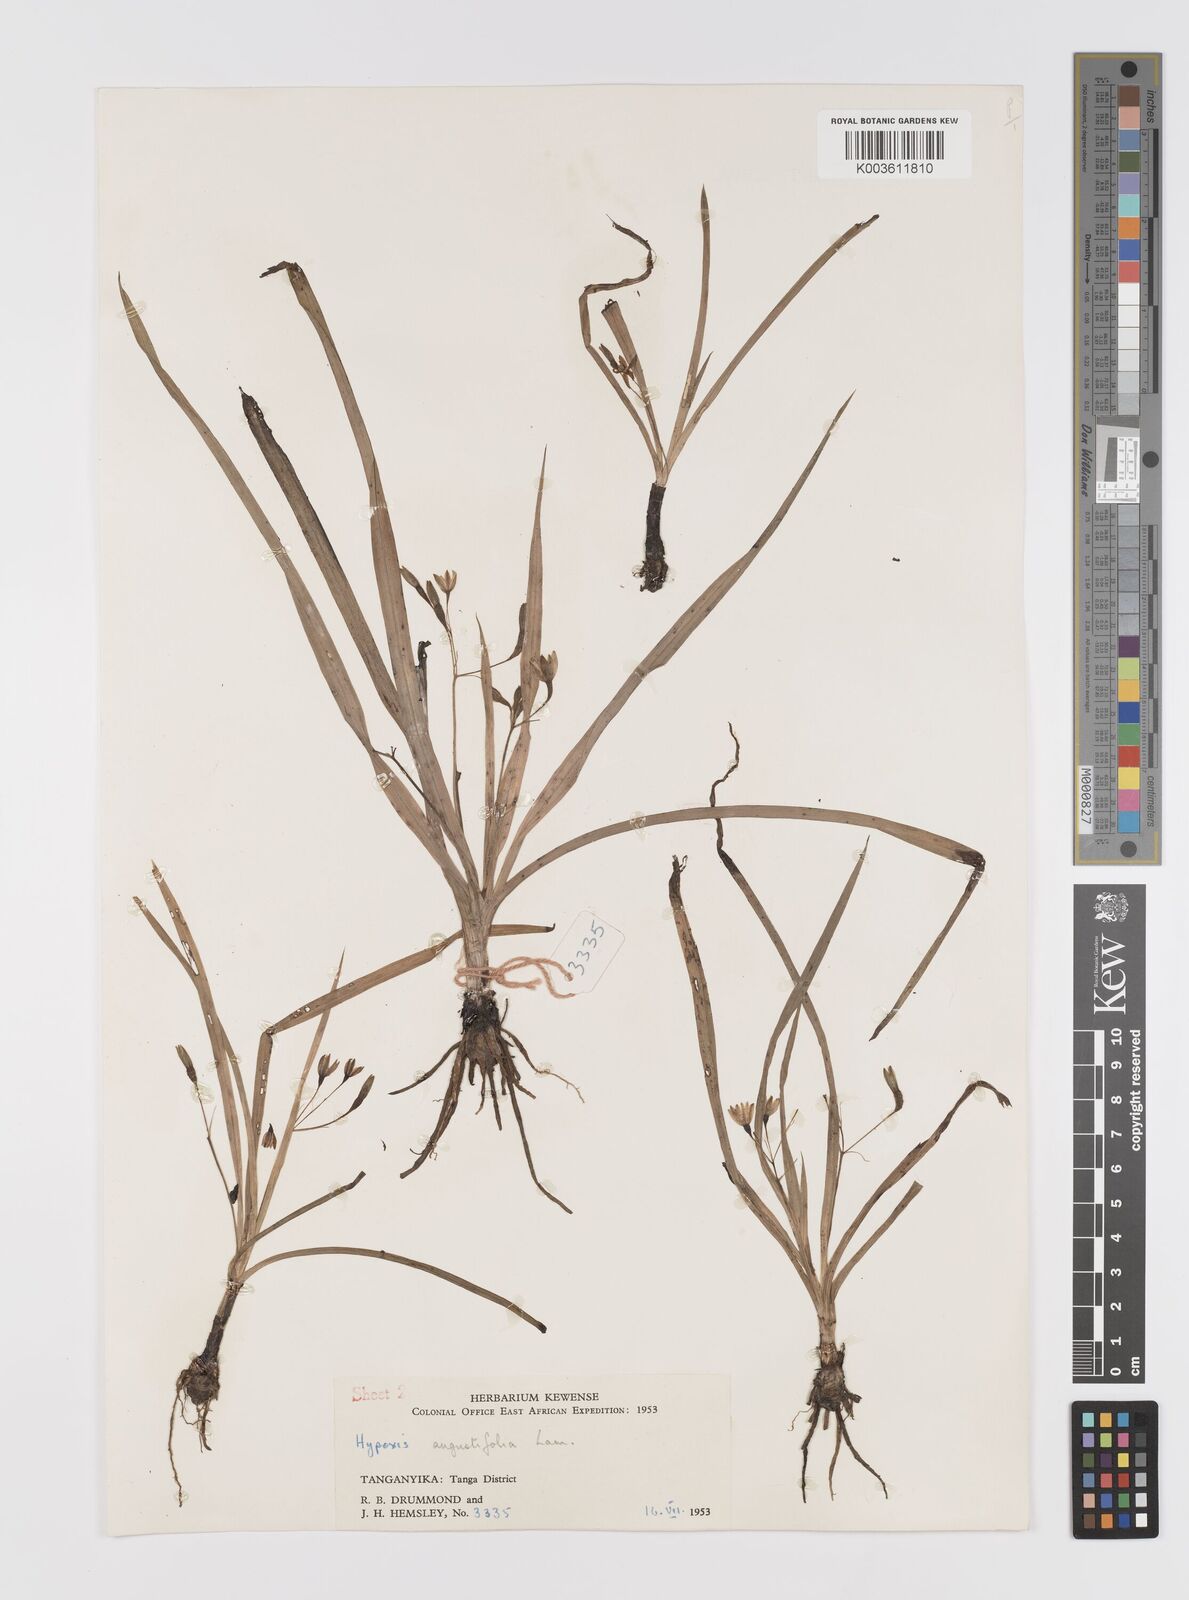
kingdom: Plantae
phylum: Tracheophyta
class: Liliopsida
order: Asparagales
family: Hypoxidaceae
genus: Hypoxis
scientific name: Hypoxis angustifolia
